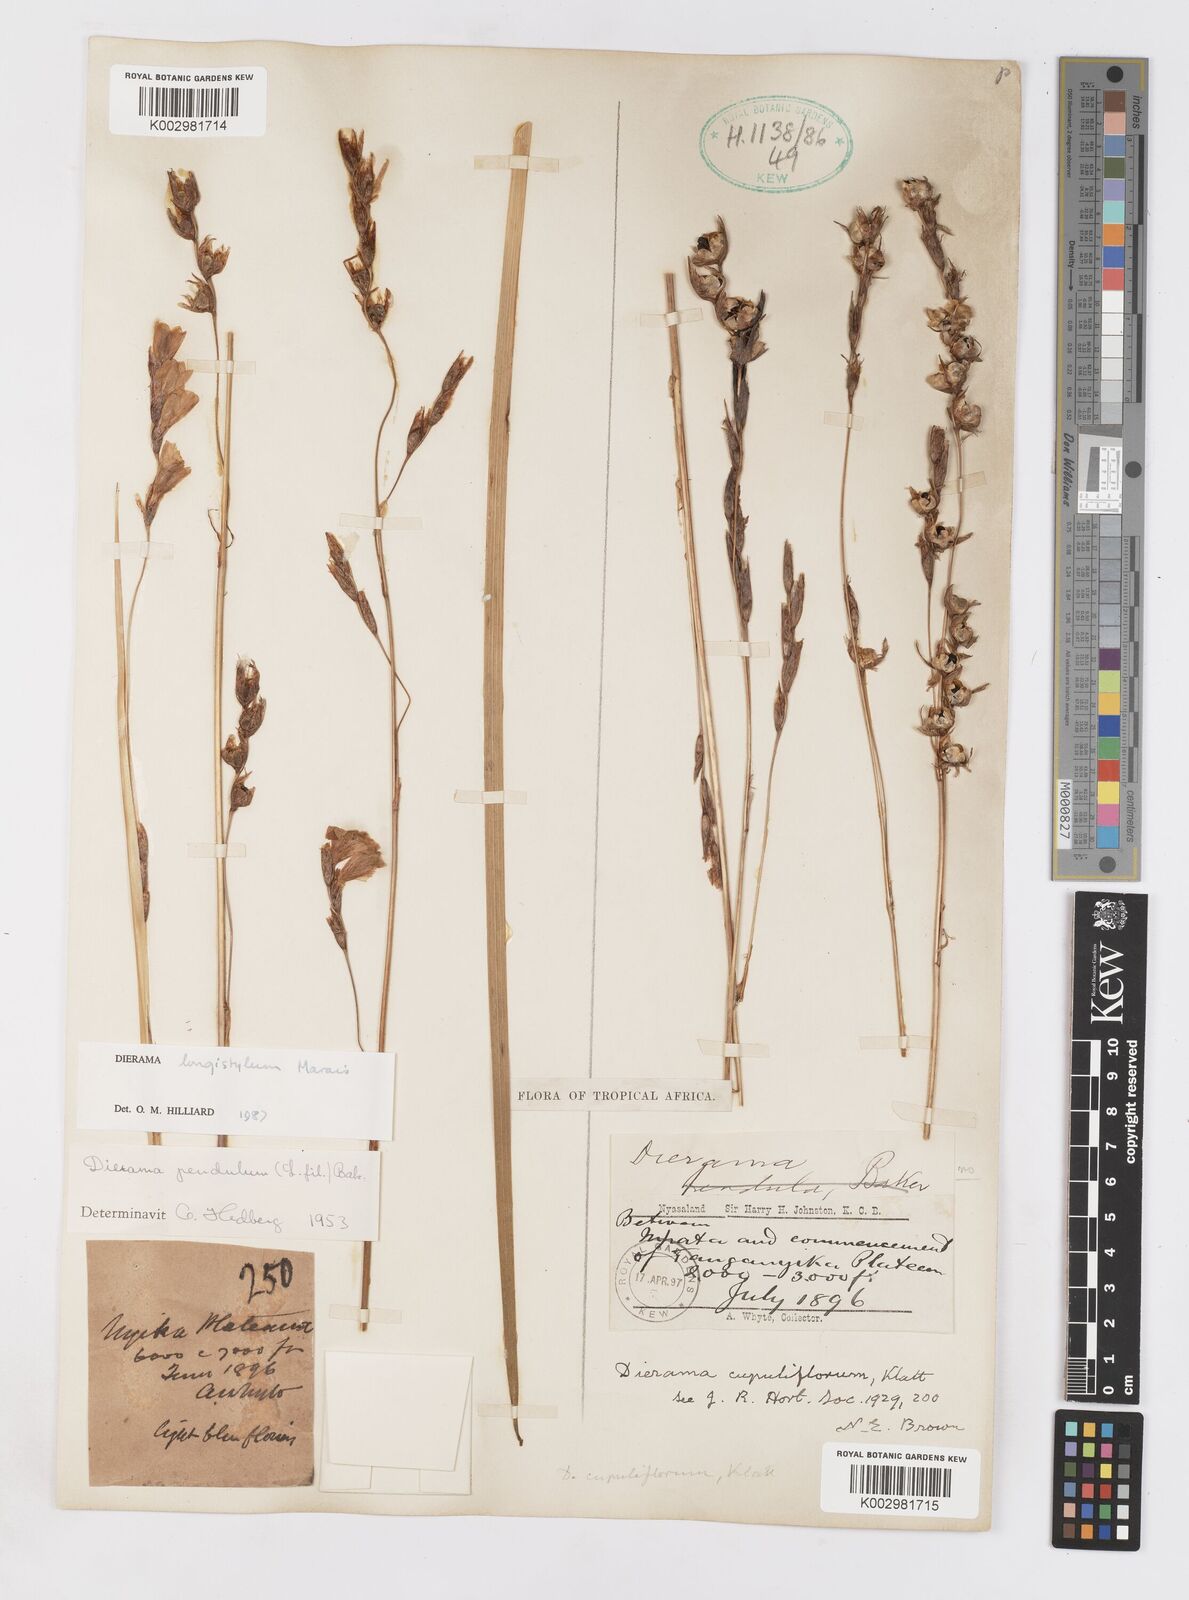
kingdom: Plantae
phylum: Tracheophyta
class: Liliopsida
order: Asparagales
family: Iridaceae
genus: Dierama
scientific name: Dierama longistylum
